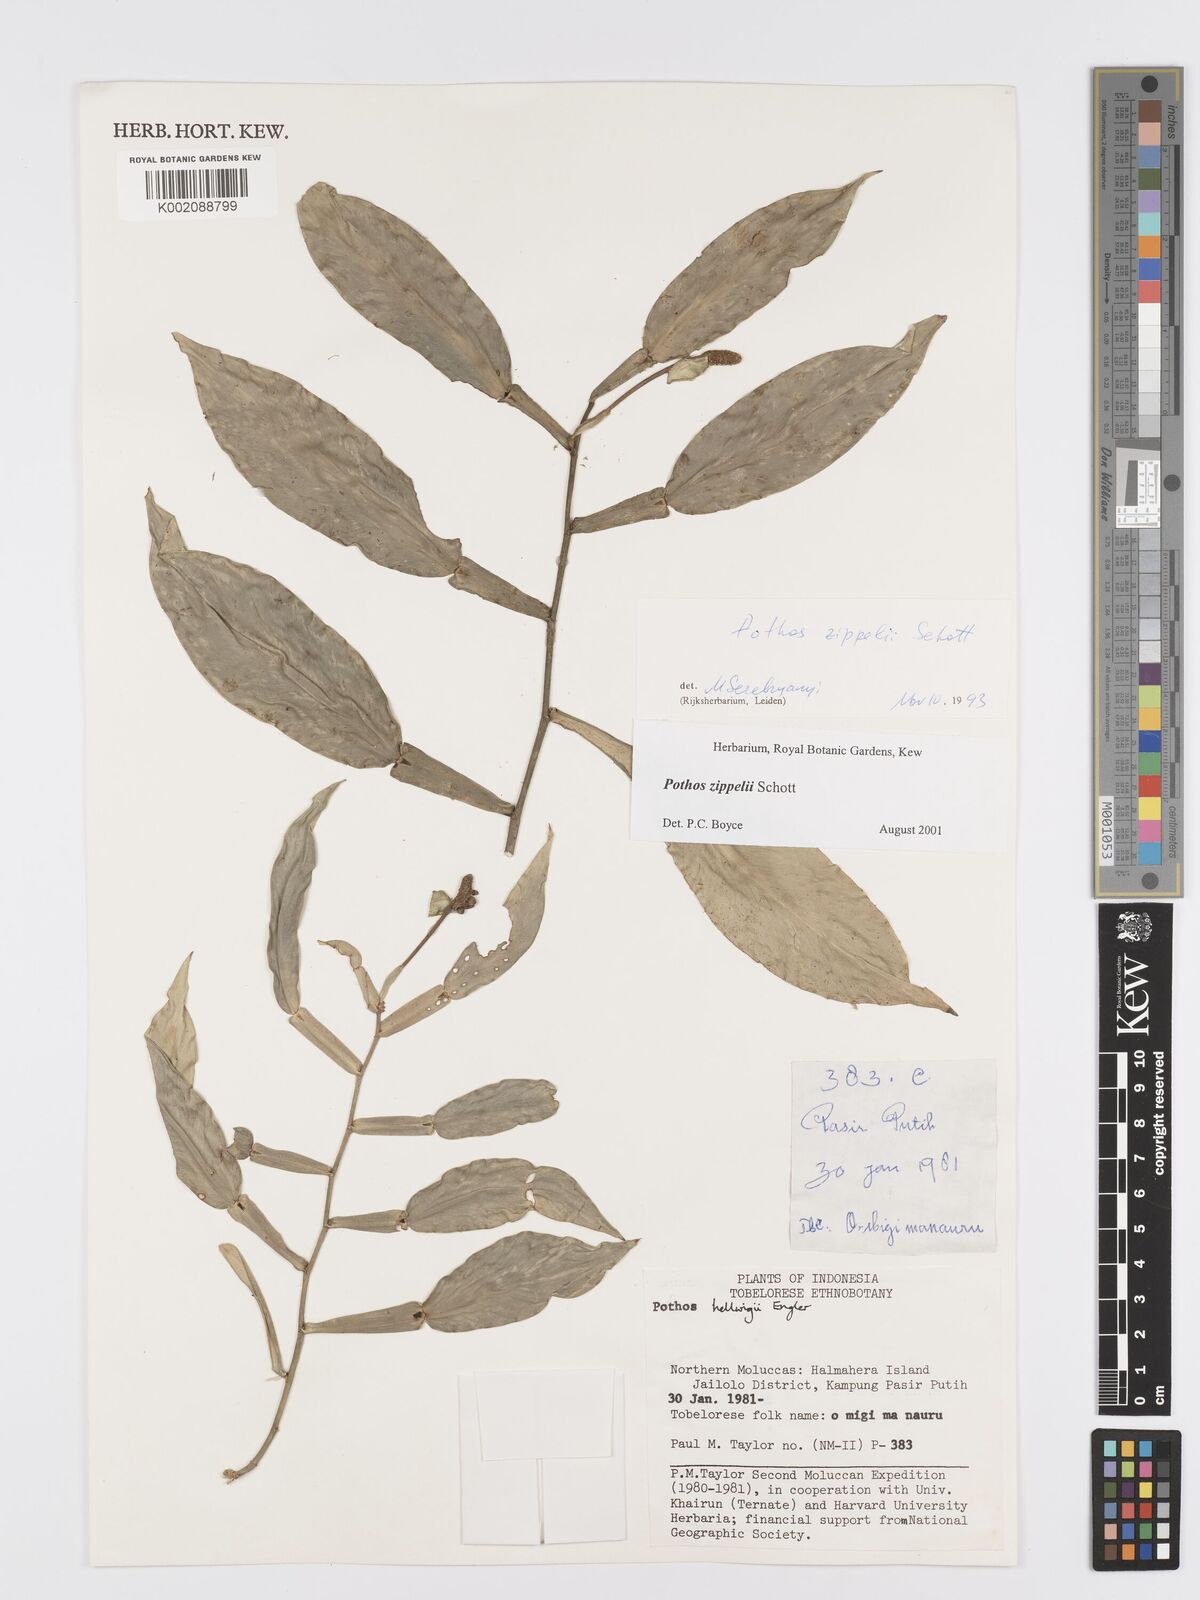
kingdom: Plantae
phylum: Tracheophyta
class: Liliopsida
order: Alismatales
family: Araceae
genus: Pothos
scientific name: Pothos zippelii
